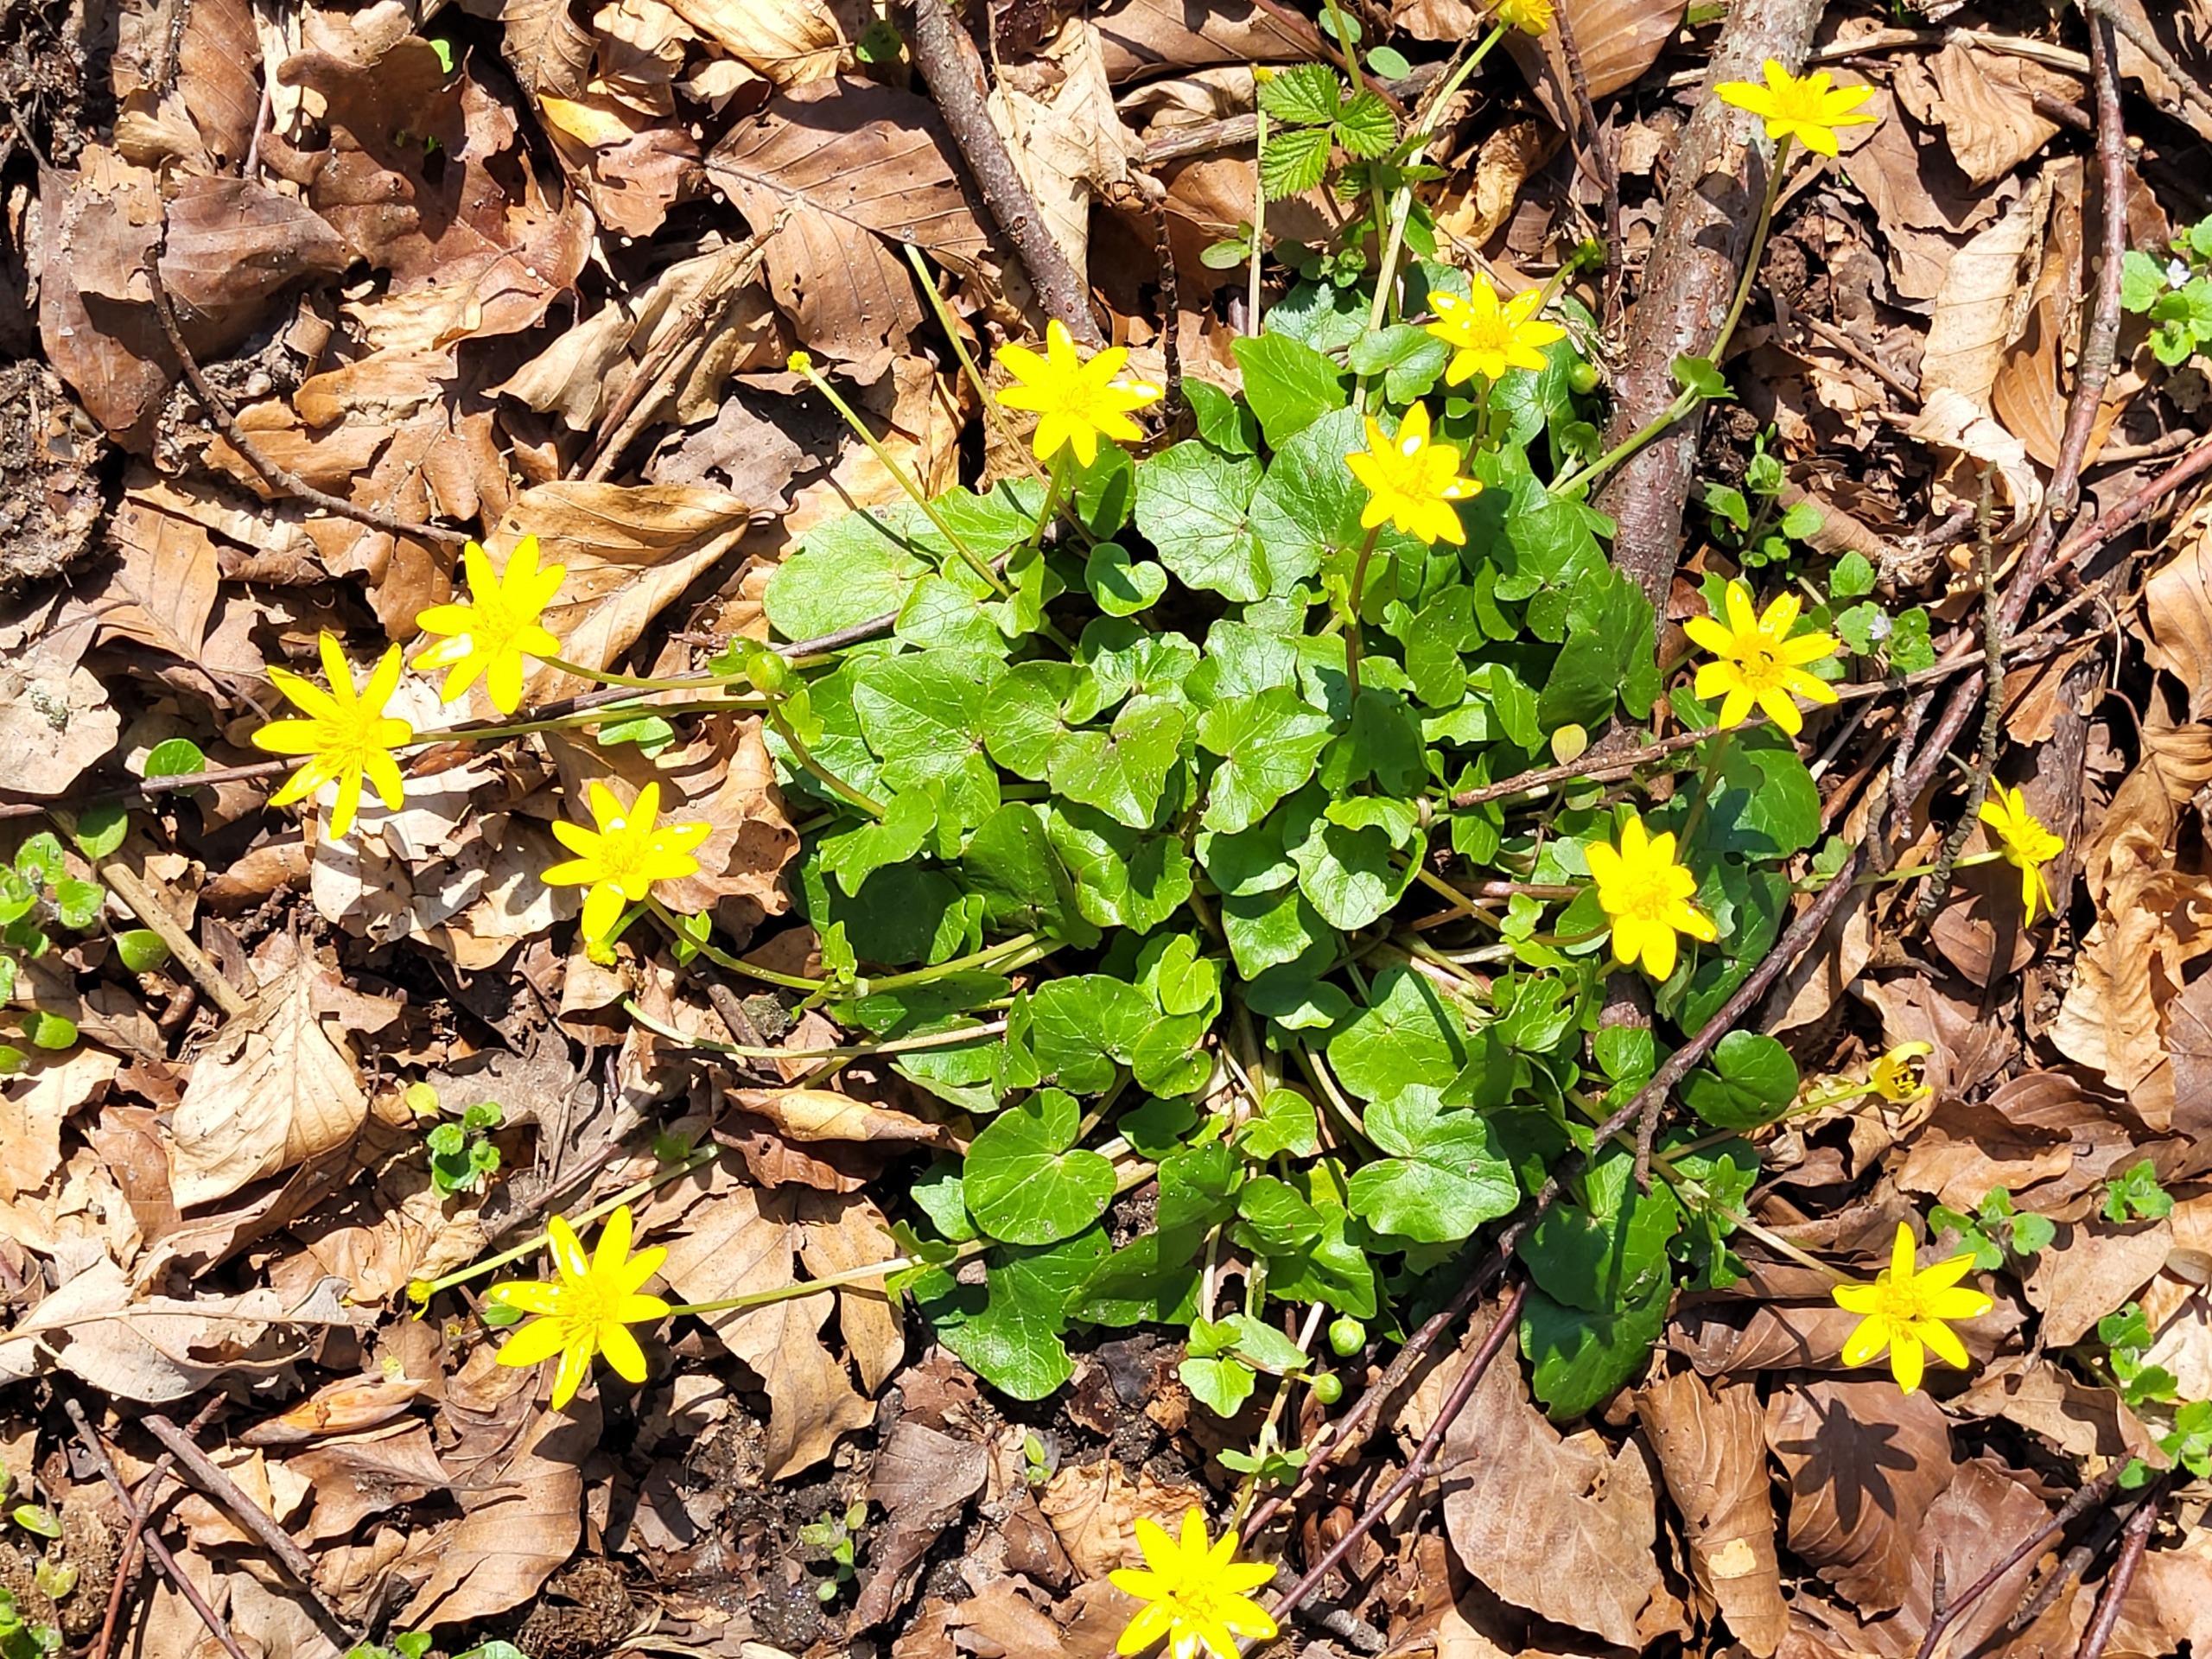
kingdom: Plantae
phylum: Tracheophyta
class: Magnoliopsida
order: Ranunculales
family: Ranunculaceae
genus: Ficaria
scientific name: Ficaria verna
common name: Vorterod
